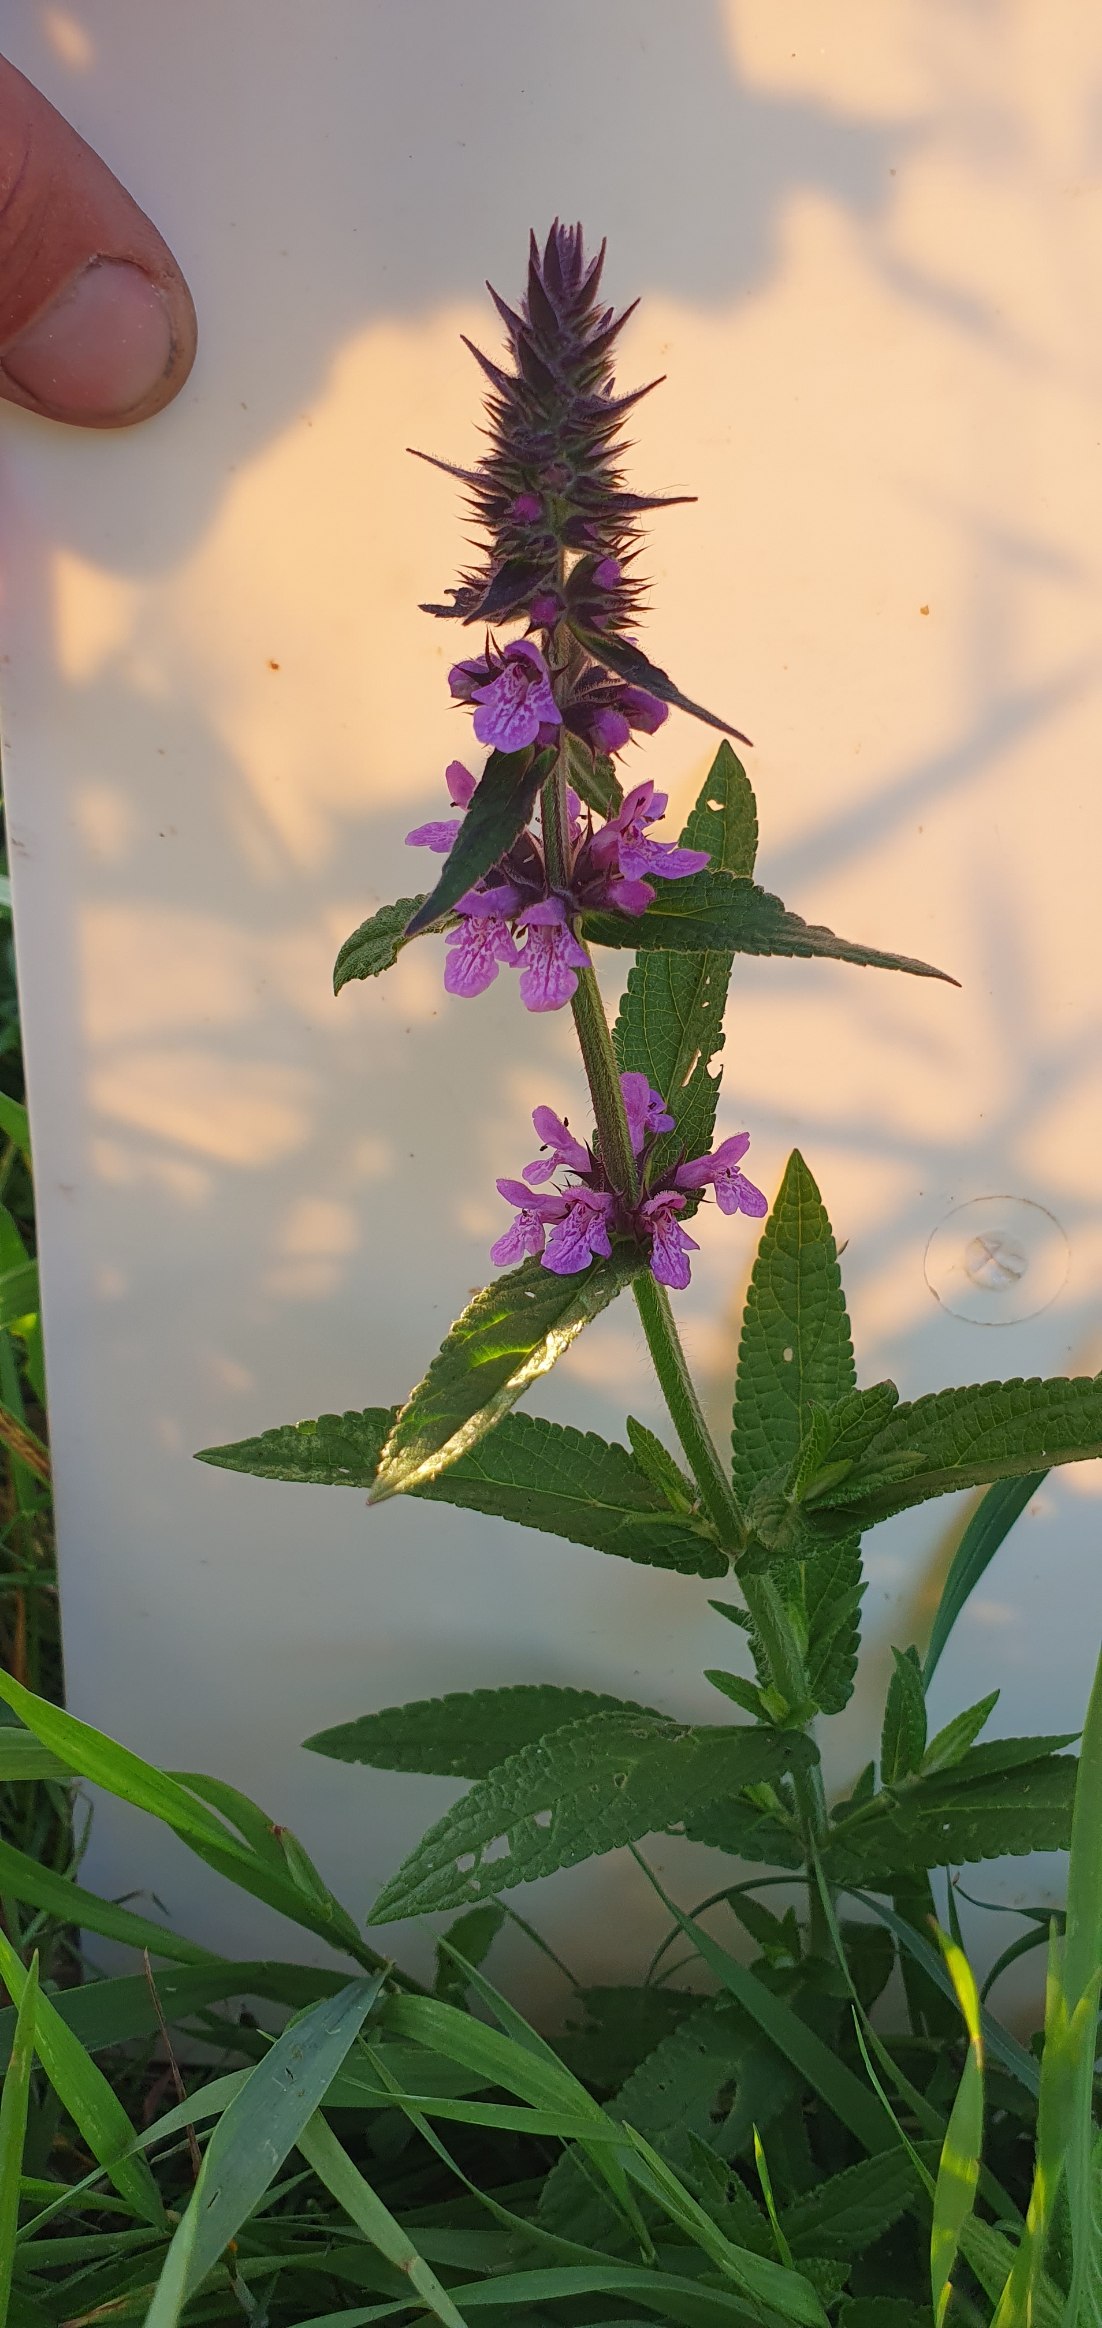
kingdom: Plantae
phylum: Tracheophyta
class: Magnoliopsida
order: Lamiales
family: Lamiaceae
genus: Stachys
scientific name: Stachys palustris
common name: Kær-galtetand
